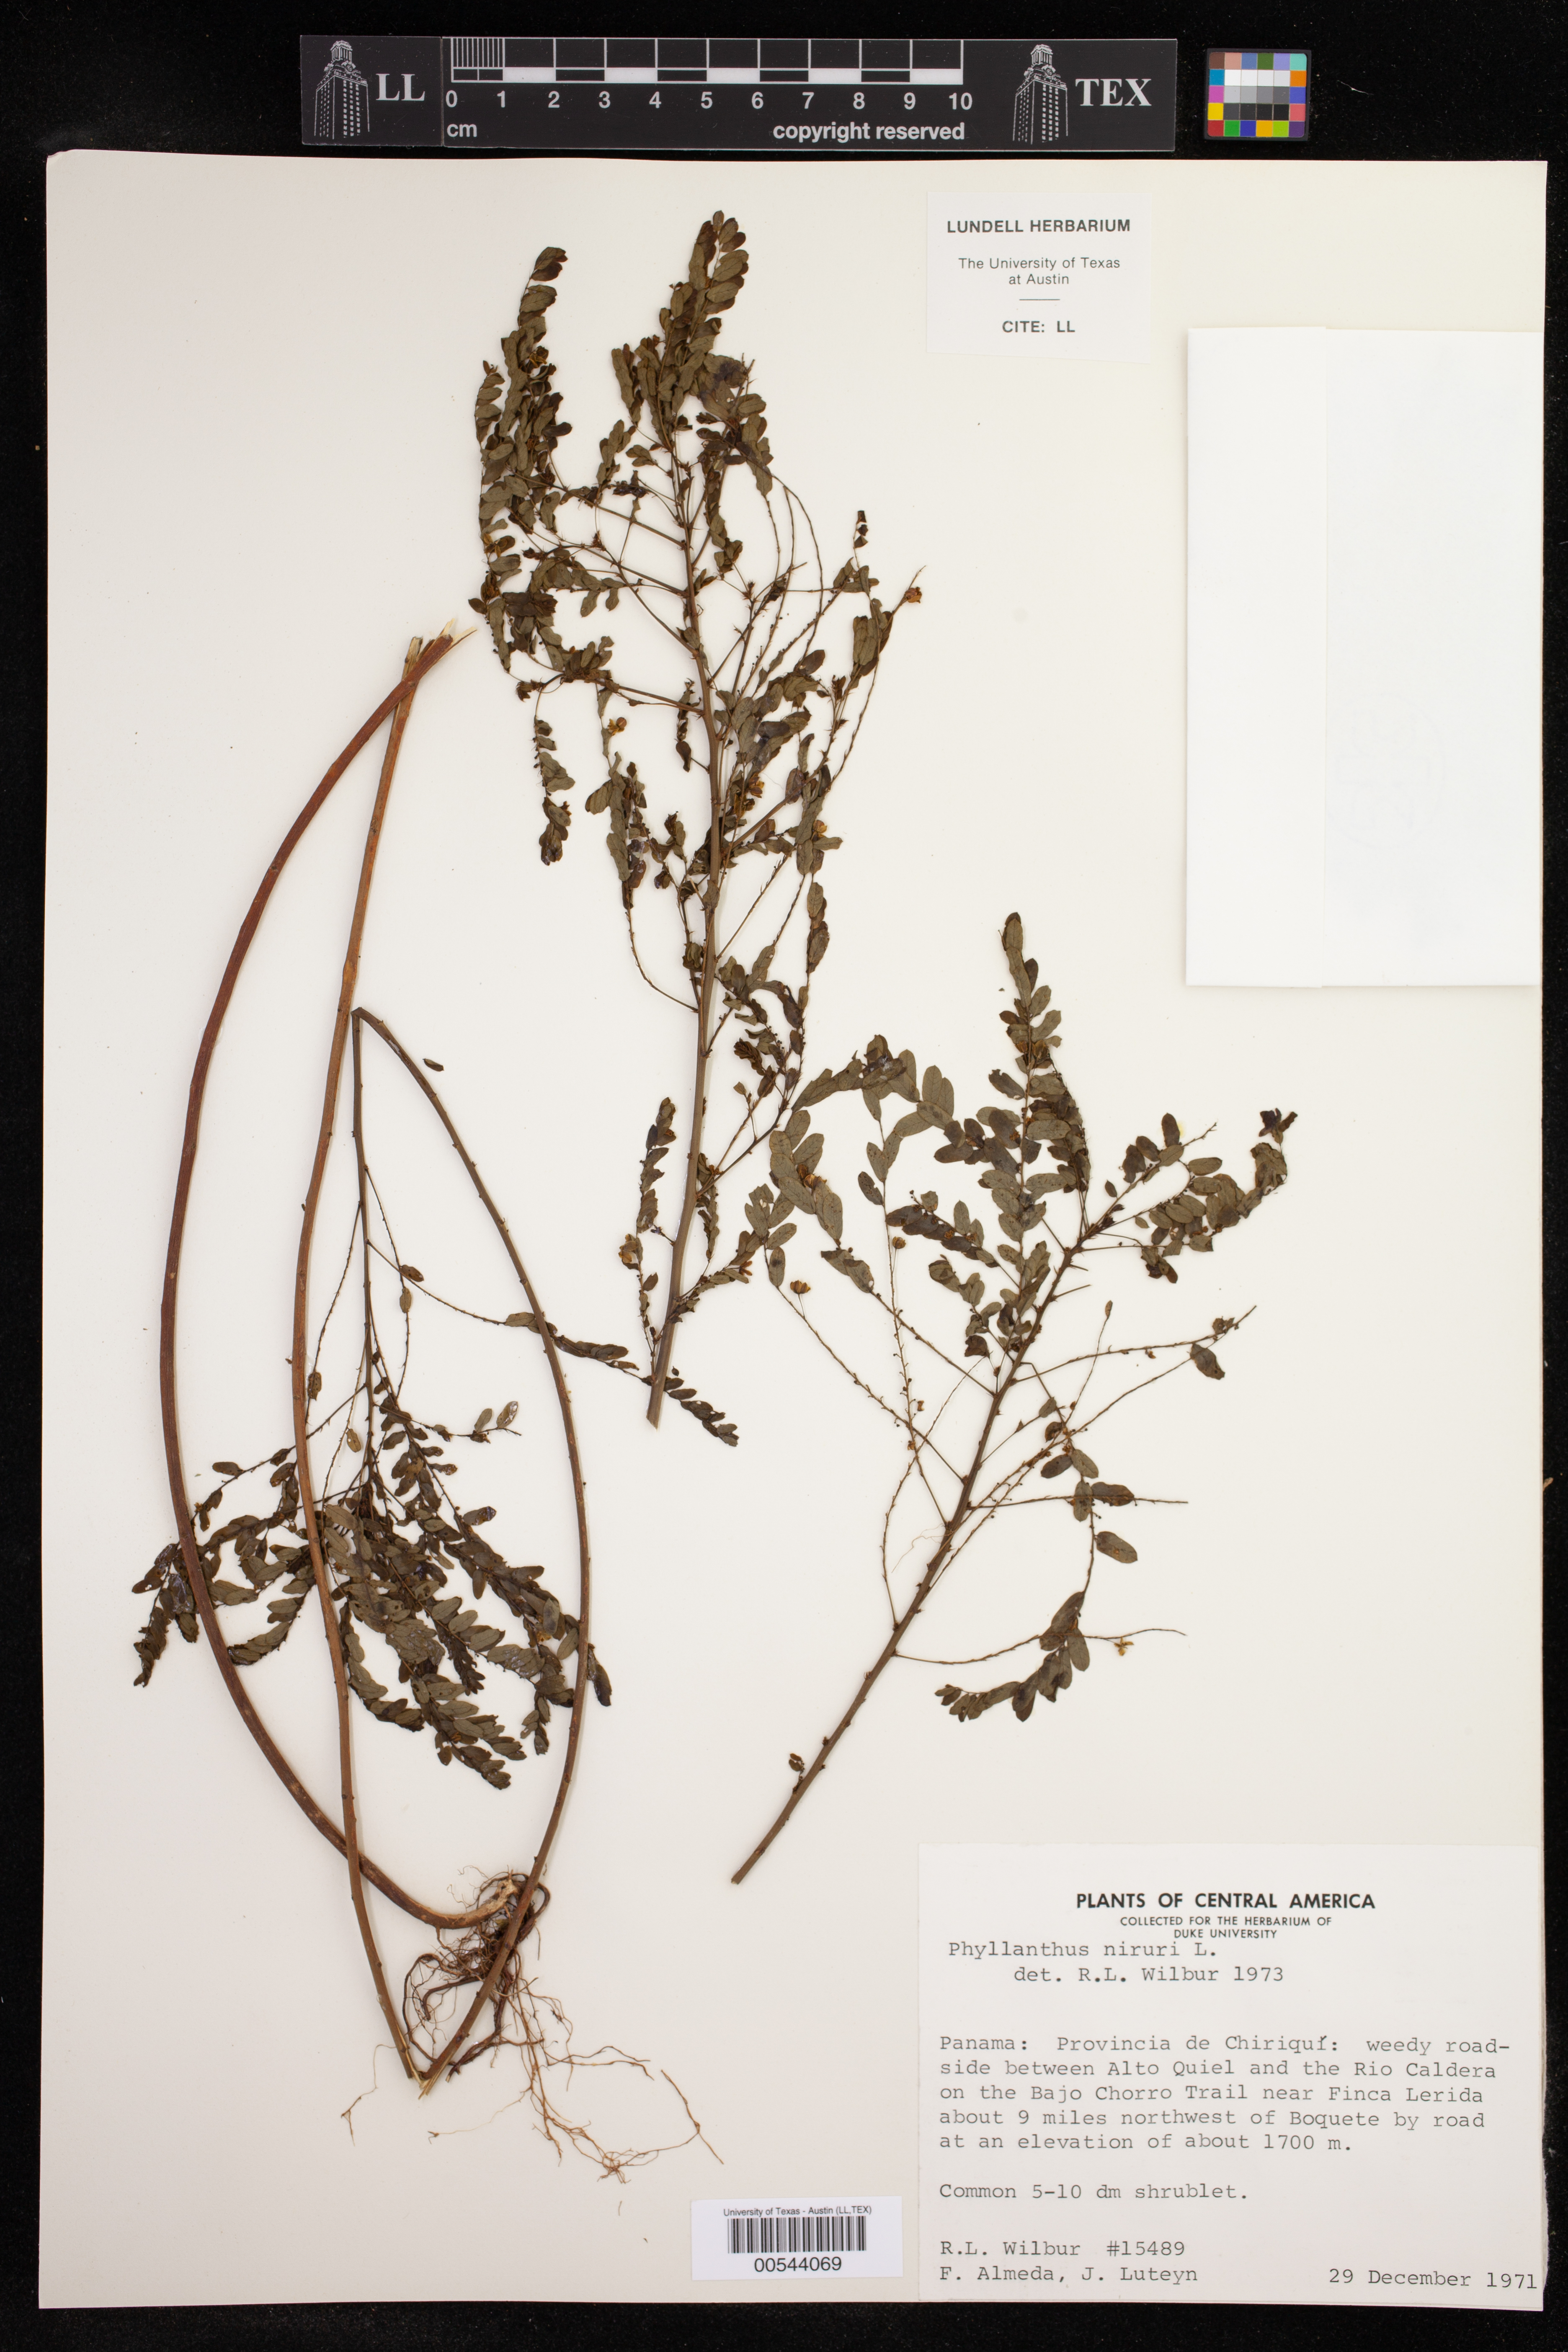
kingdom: Plantae
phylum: Tracheophyta
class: Magnoliopsida
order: Malpighiales
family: Phyllanthaceae
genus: Phyllanthus
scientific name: Phyllanthus niruri
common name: Niruri
